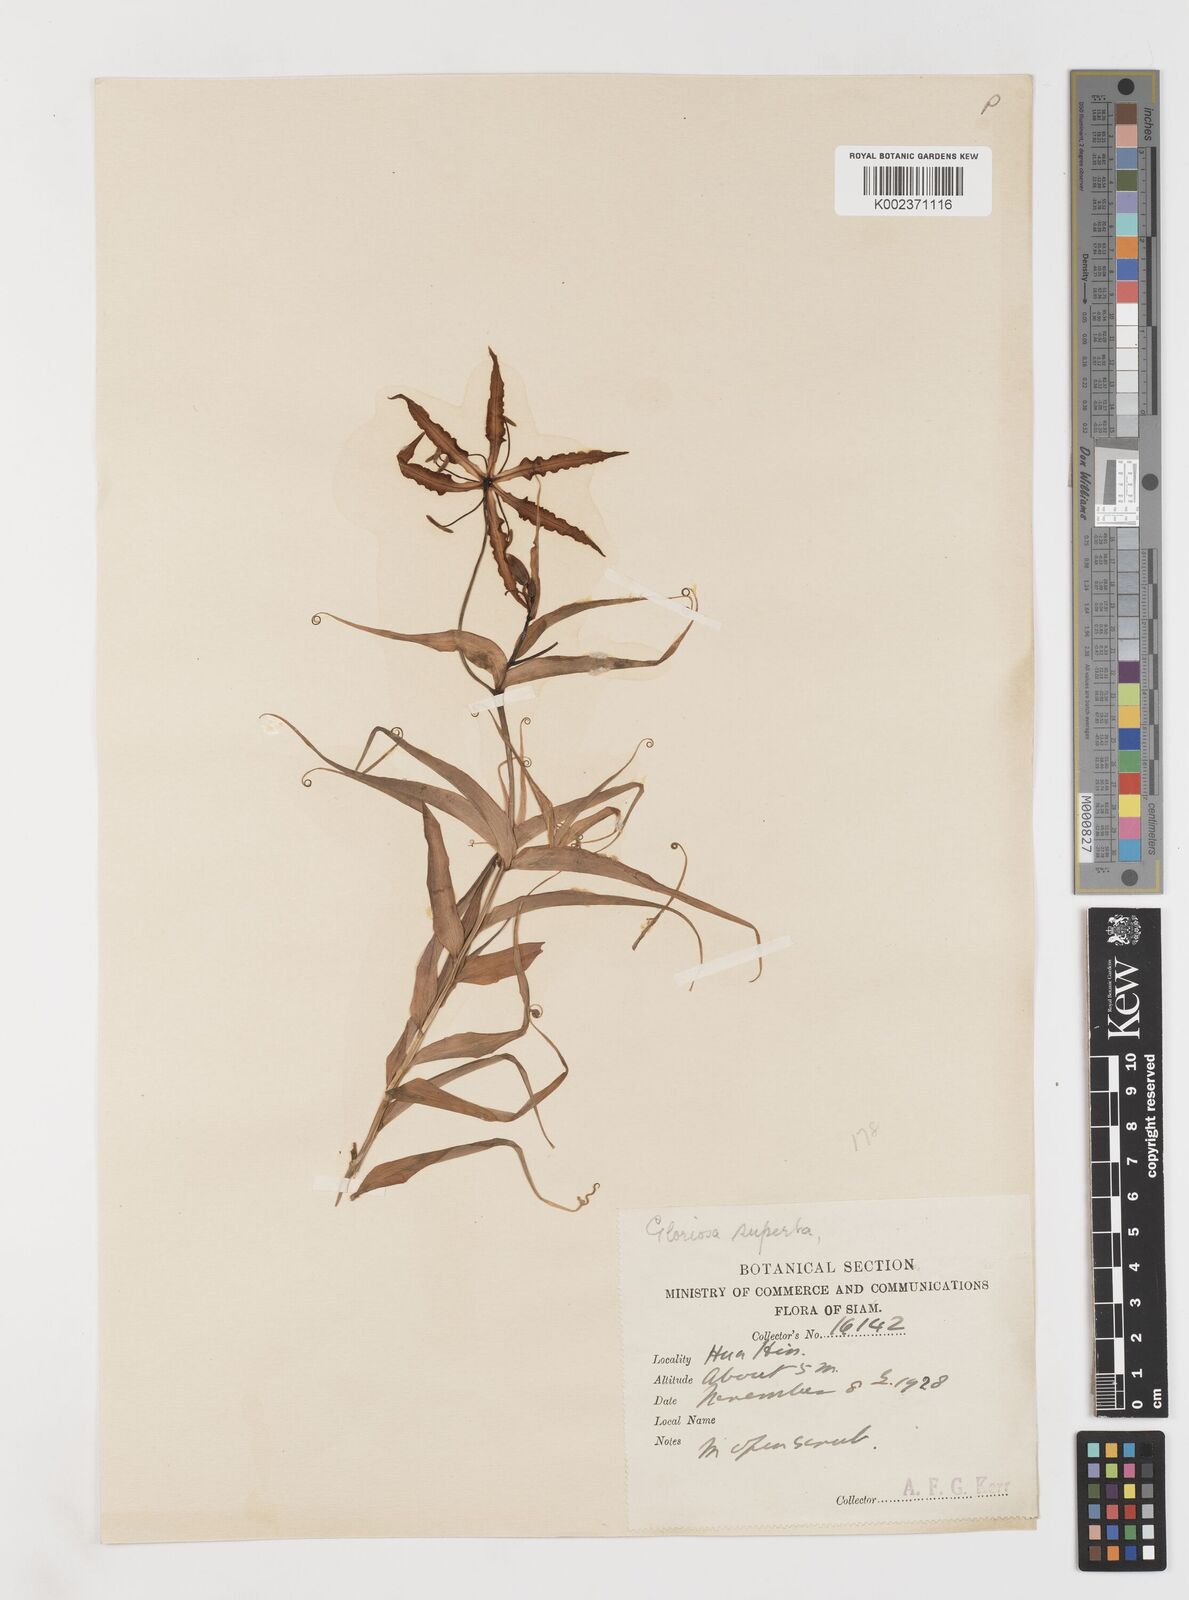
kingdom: Plantae
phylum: Tracheophyta
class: Liliopsida
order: Liliales
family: Colchicaceae
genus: Gloriosa
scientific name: Gloriosa superba
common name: Flame lily
